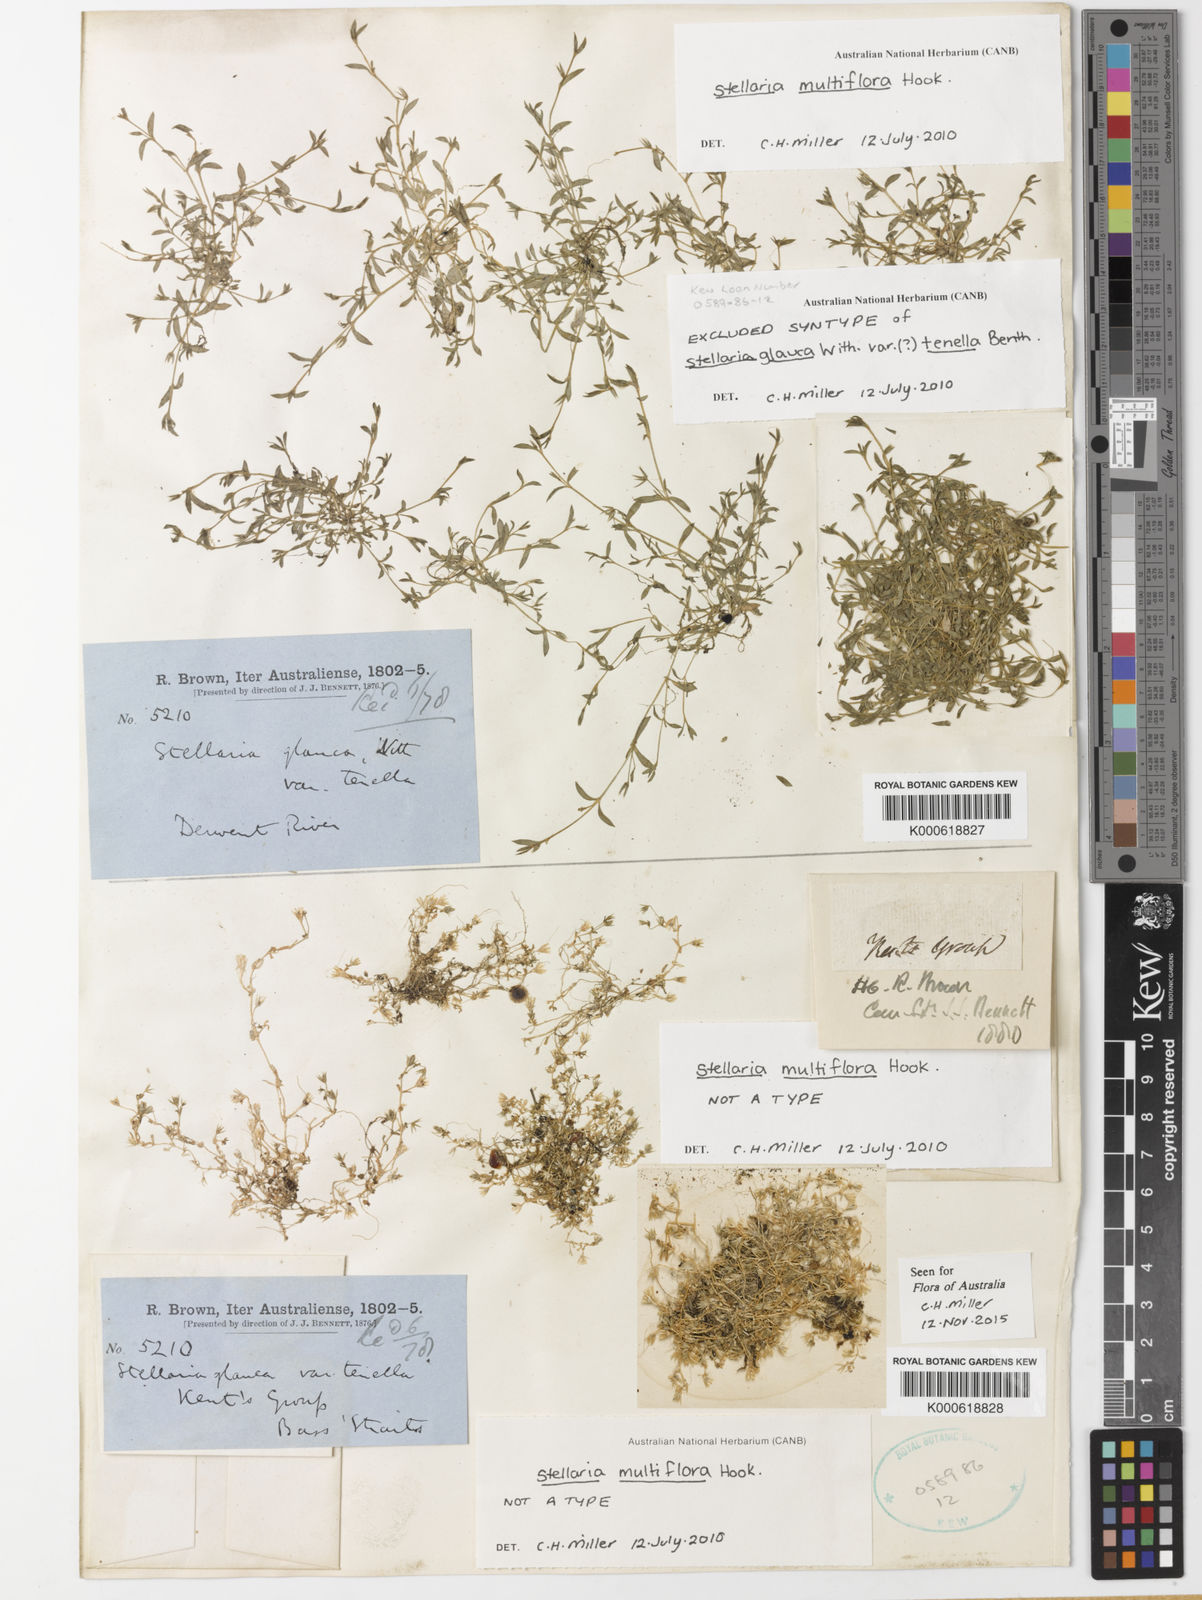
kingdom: Plantae
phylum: Tracheophyta
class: Magnoliopsida
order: Caryophyllales
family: Caryophyllaceae
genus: Stellaria
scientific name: Stellaria multiflora
